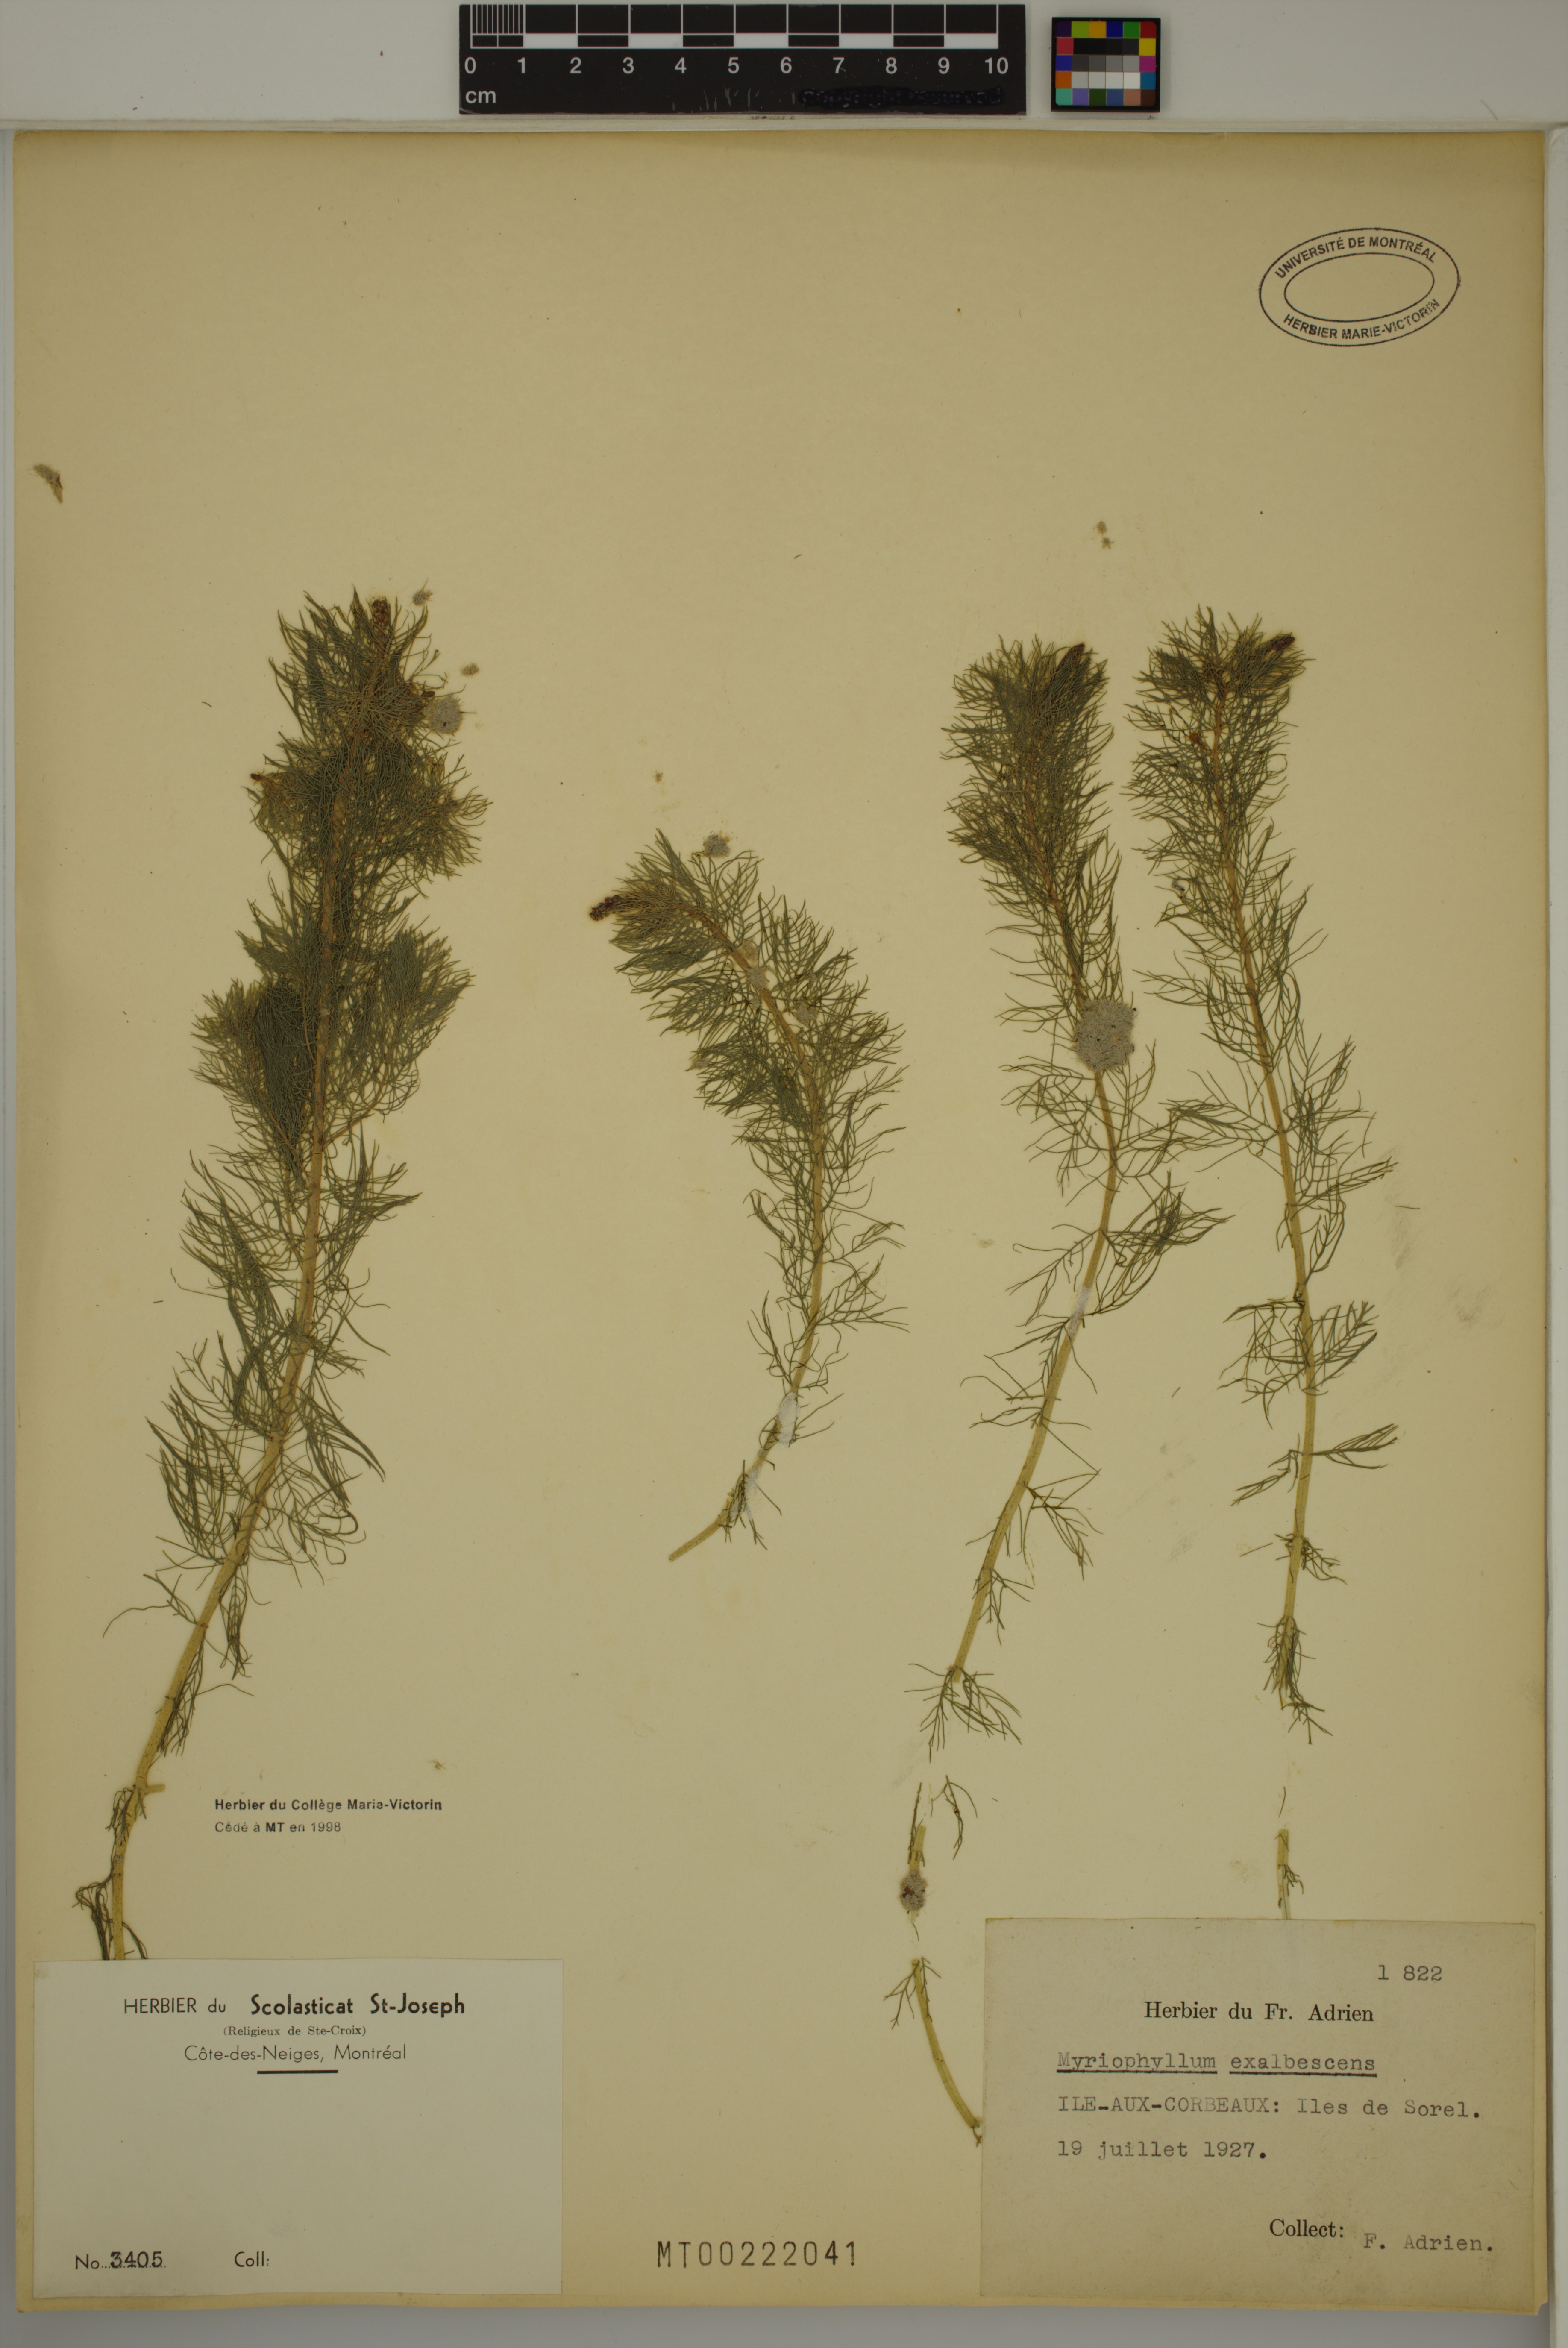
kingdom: Plantae
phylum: Tracheophyta
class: Magnoliopsida
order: Saxifragales
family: Haloragaceae
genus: Myriophyllum
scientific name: Myriophyllum sibiricum
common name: Siberian water-milfoil
